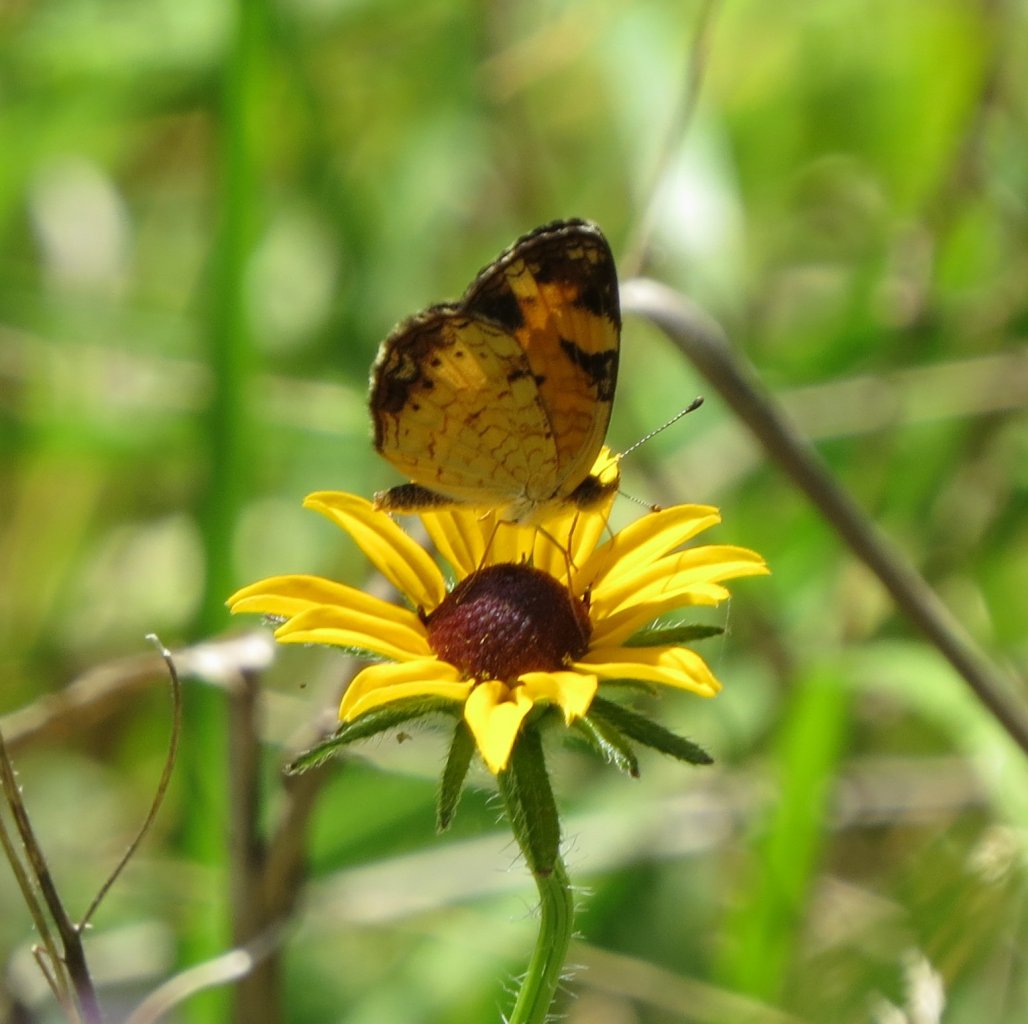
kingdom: Animalia
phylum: Arthropoda
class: Insecta
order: Lepidoptera
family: Nymphalidae
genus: Phyciodes
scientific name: Phyciodes tharos
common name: Pearl Crescent
